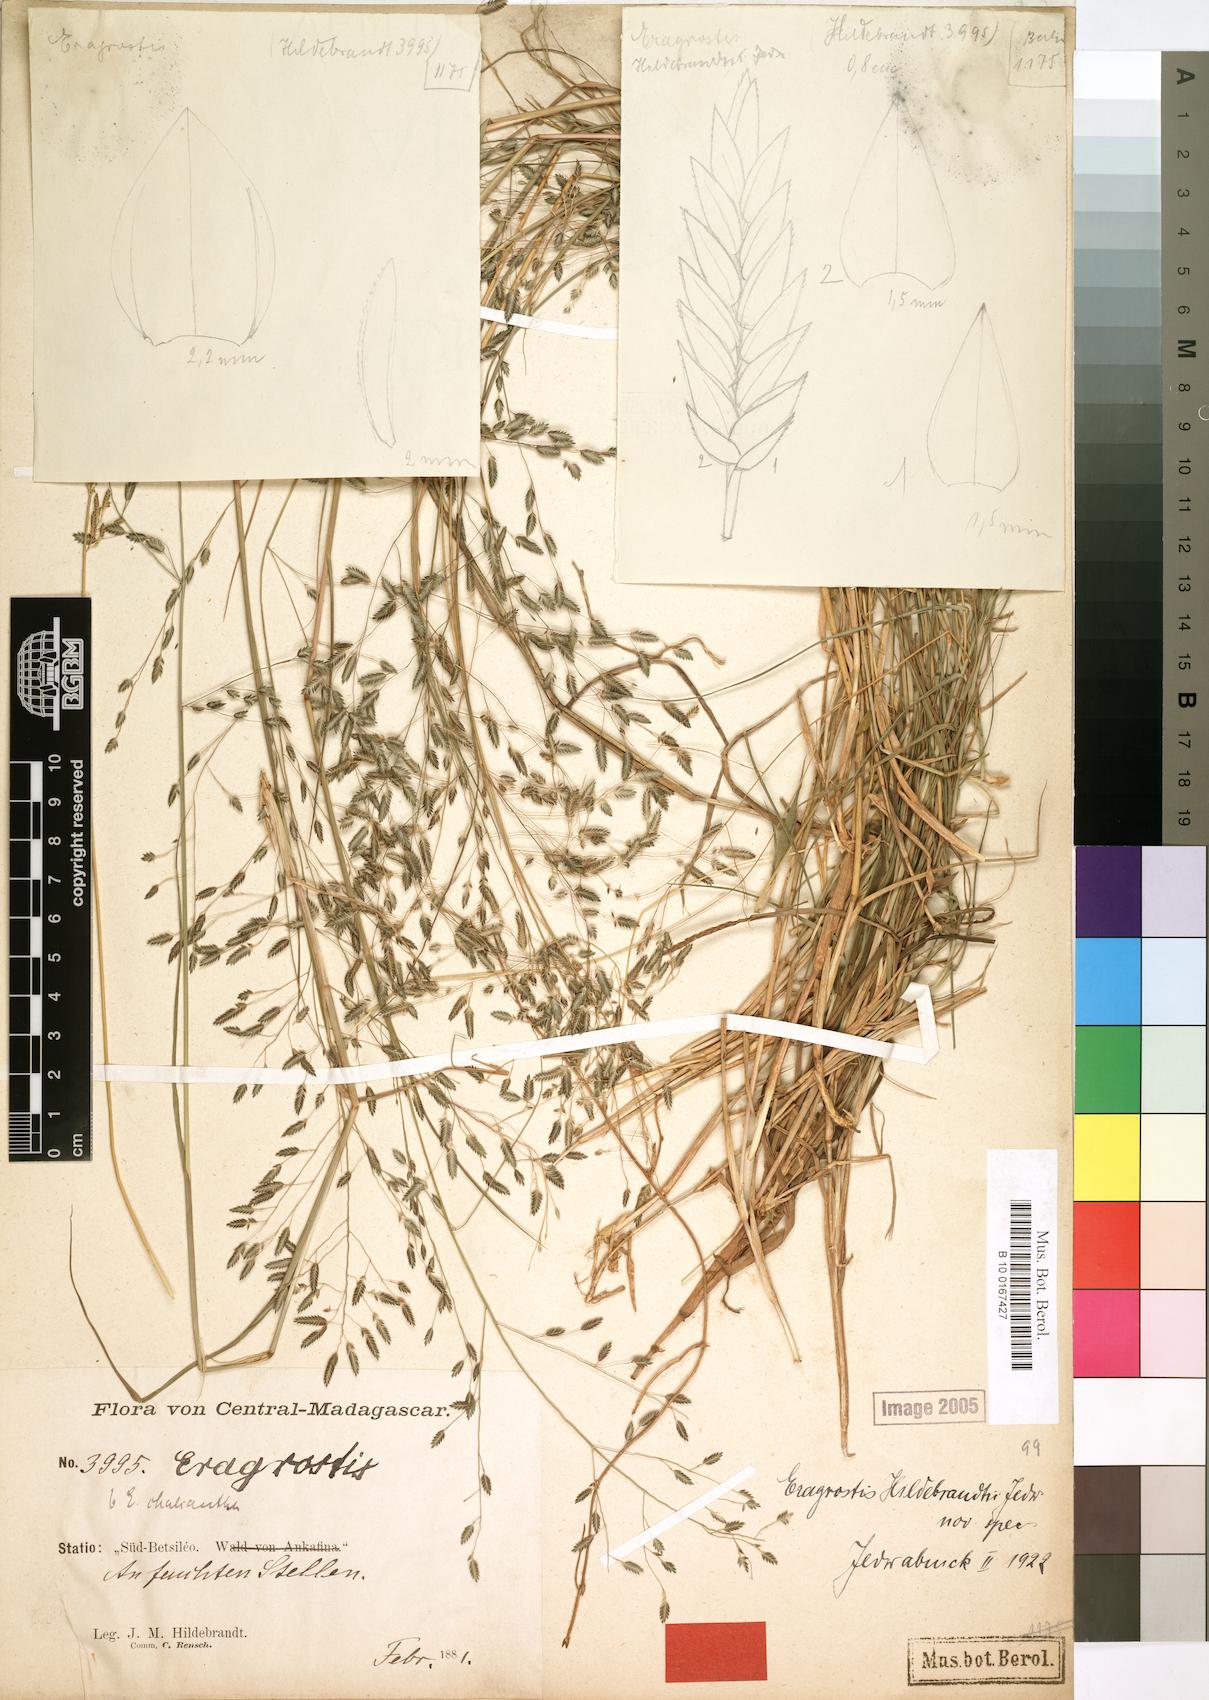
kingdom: Plantae
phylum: Tracheophyta
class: Liliopsida
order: Poales
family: Poaceae
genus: Eragrostis
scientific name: Eragrostis hildebrandtii
